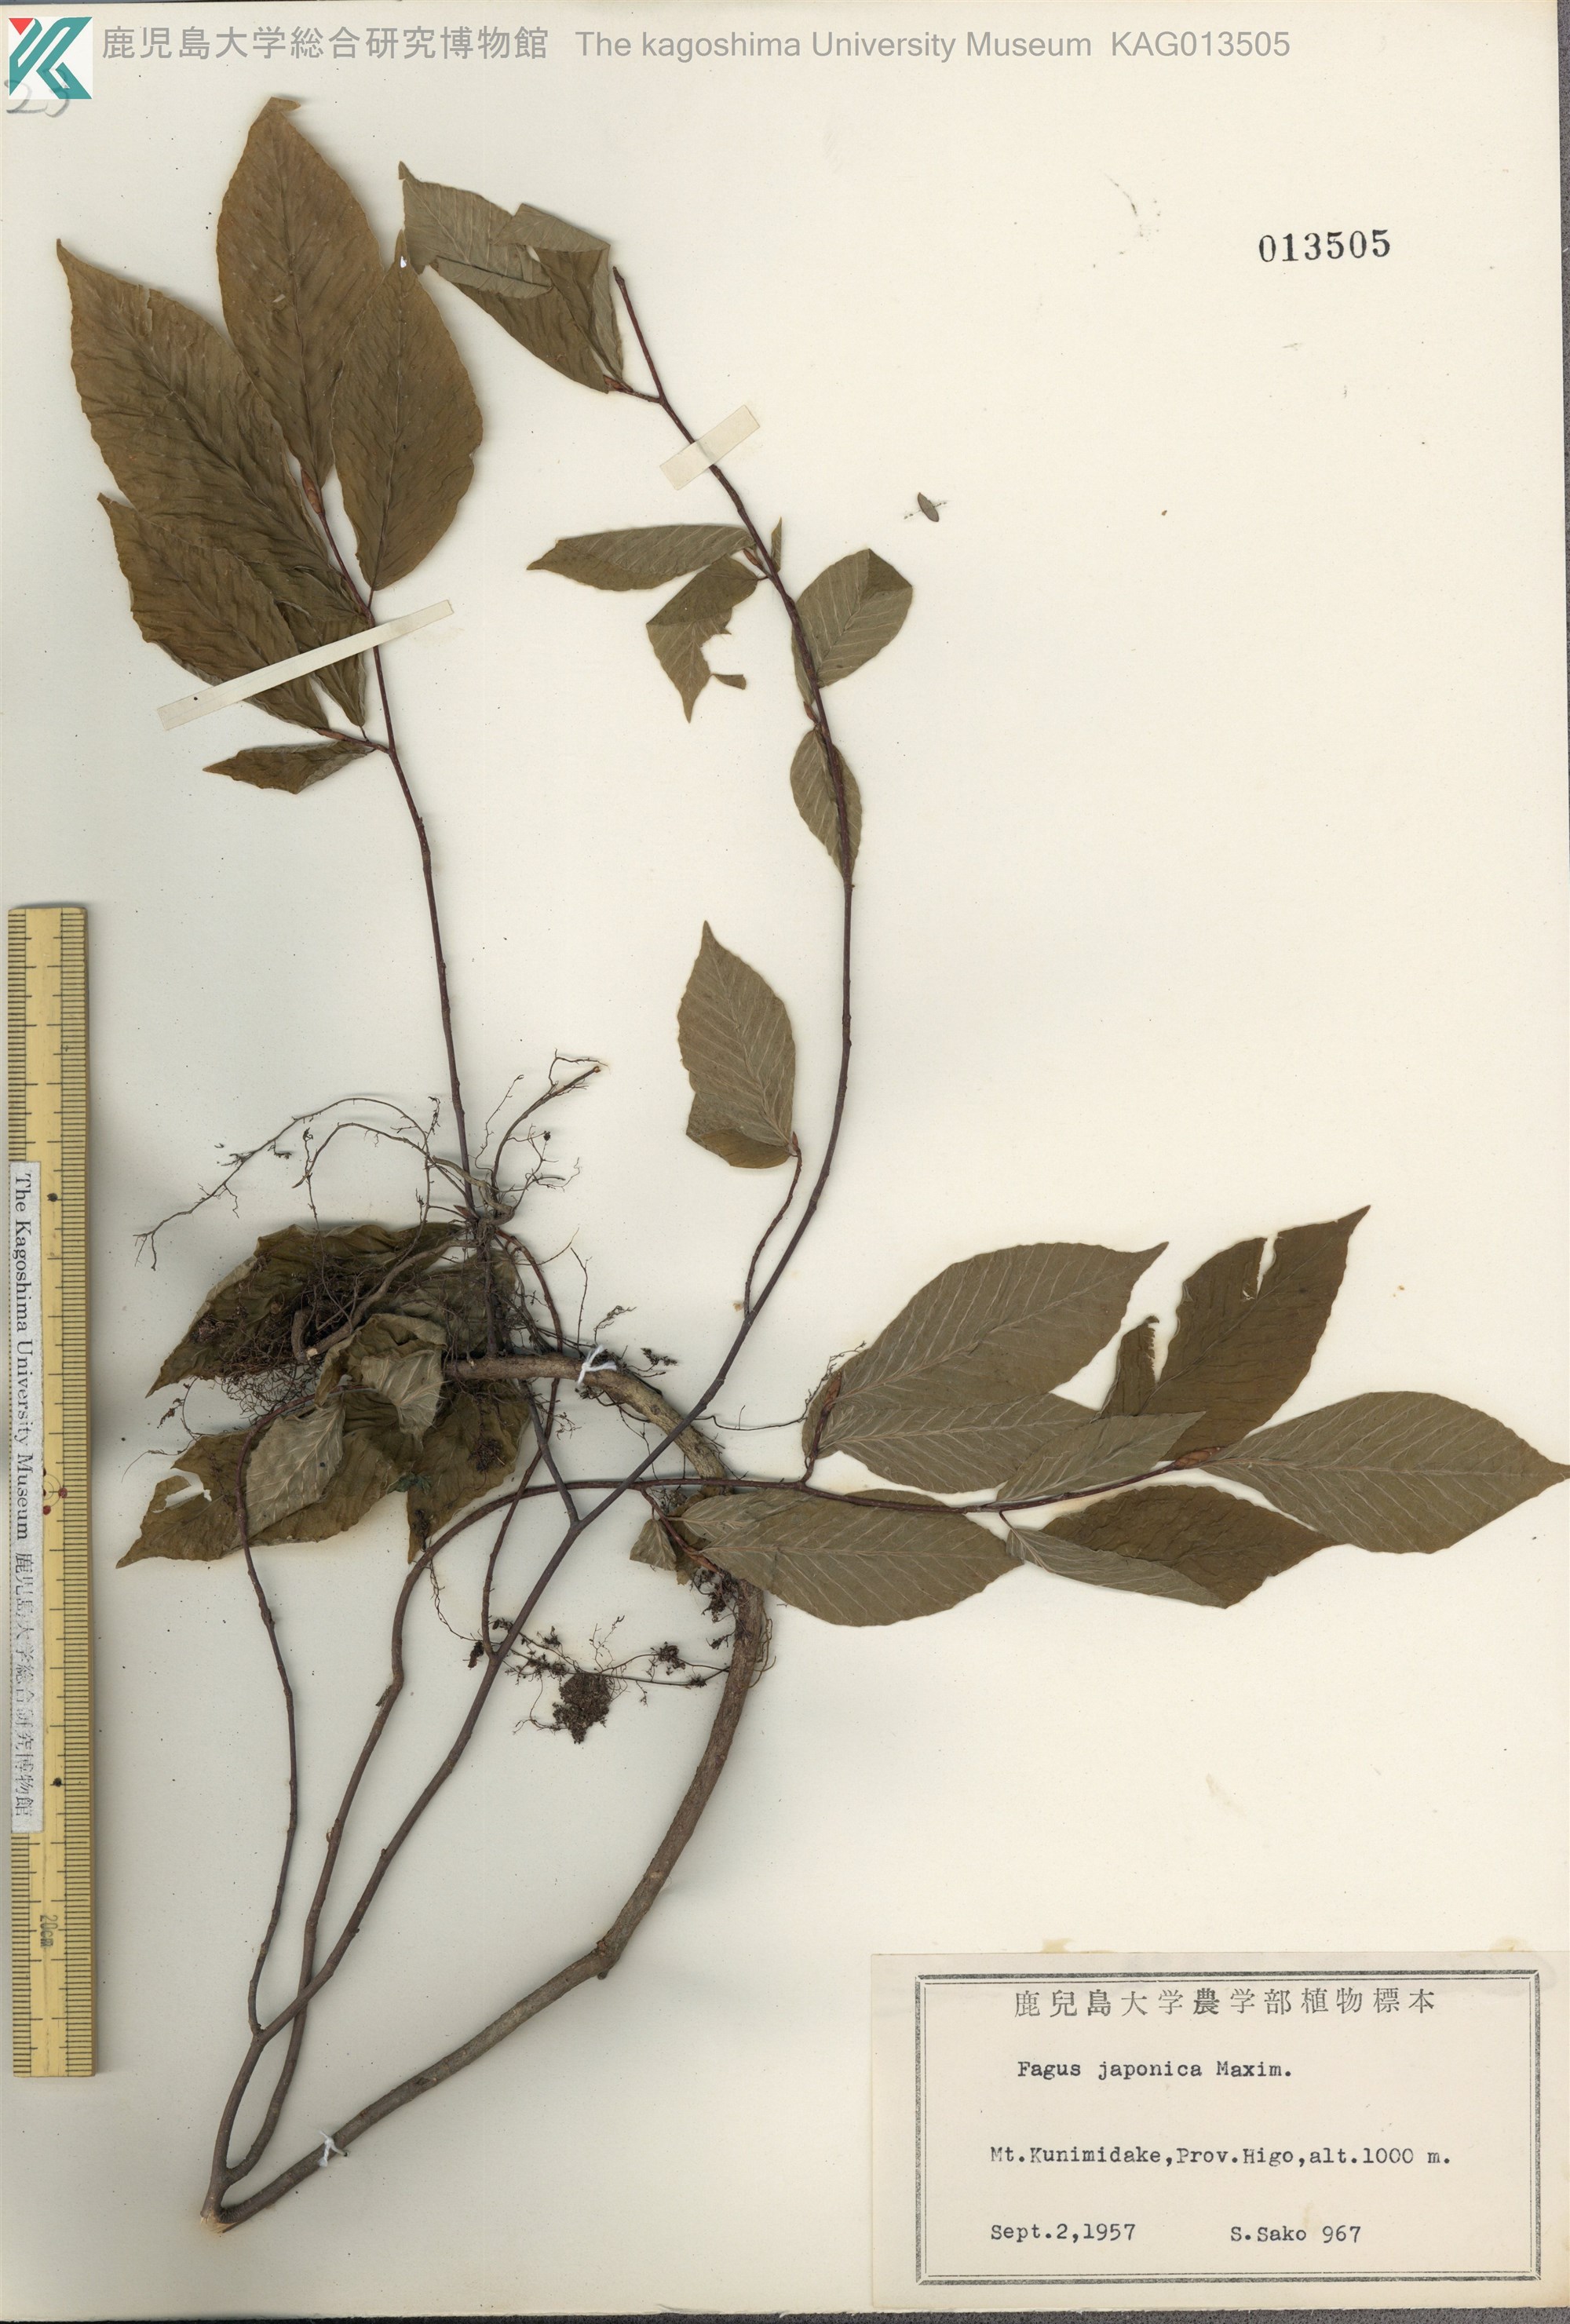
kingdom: Plantae
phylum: Tracheophyta
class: Magnoliopsida
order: Fagales
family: Fagaceae
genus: Fagus
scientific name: Fagus japonica
